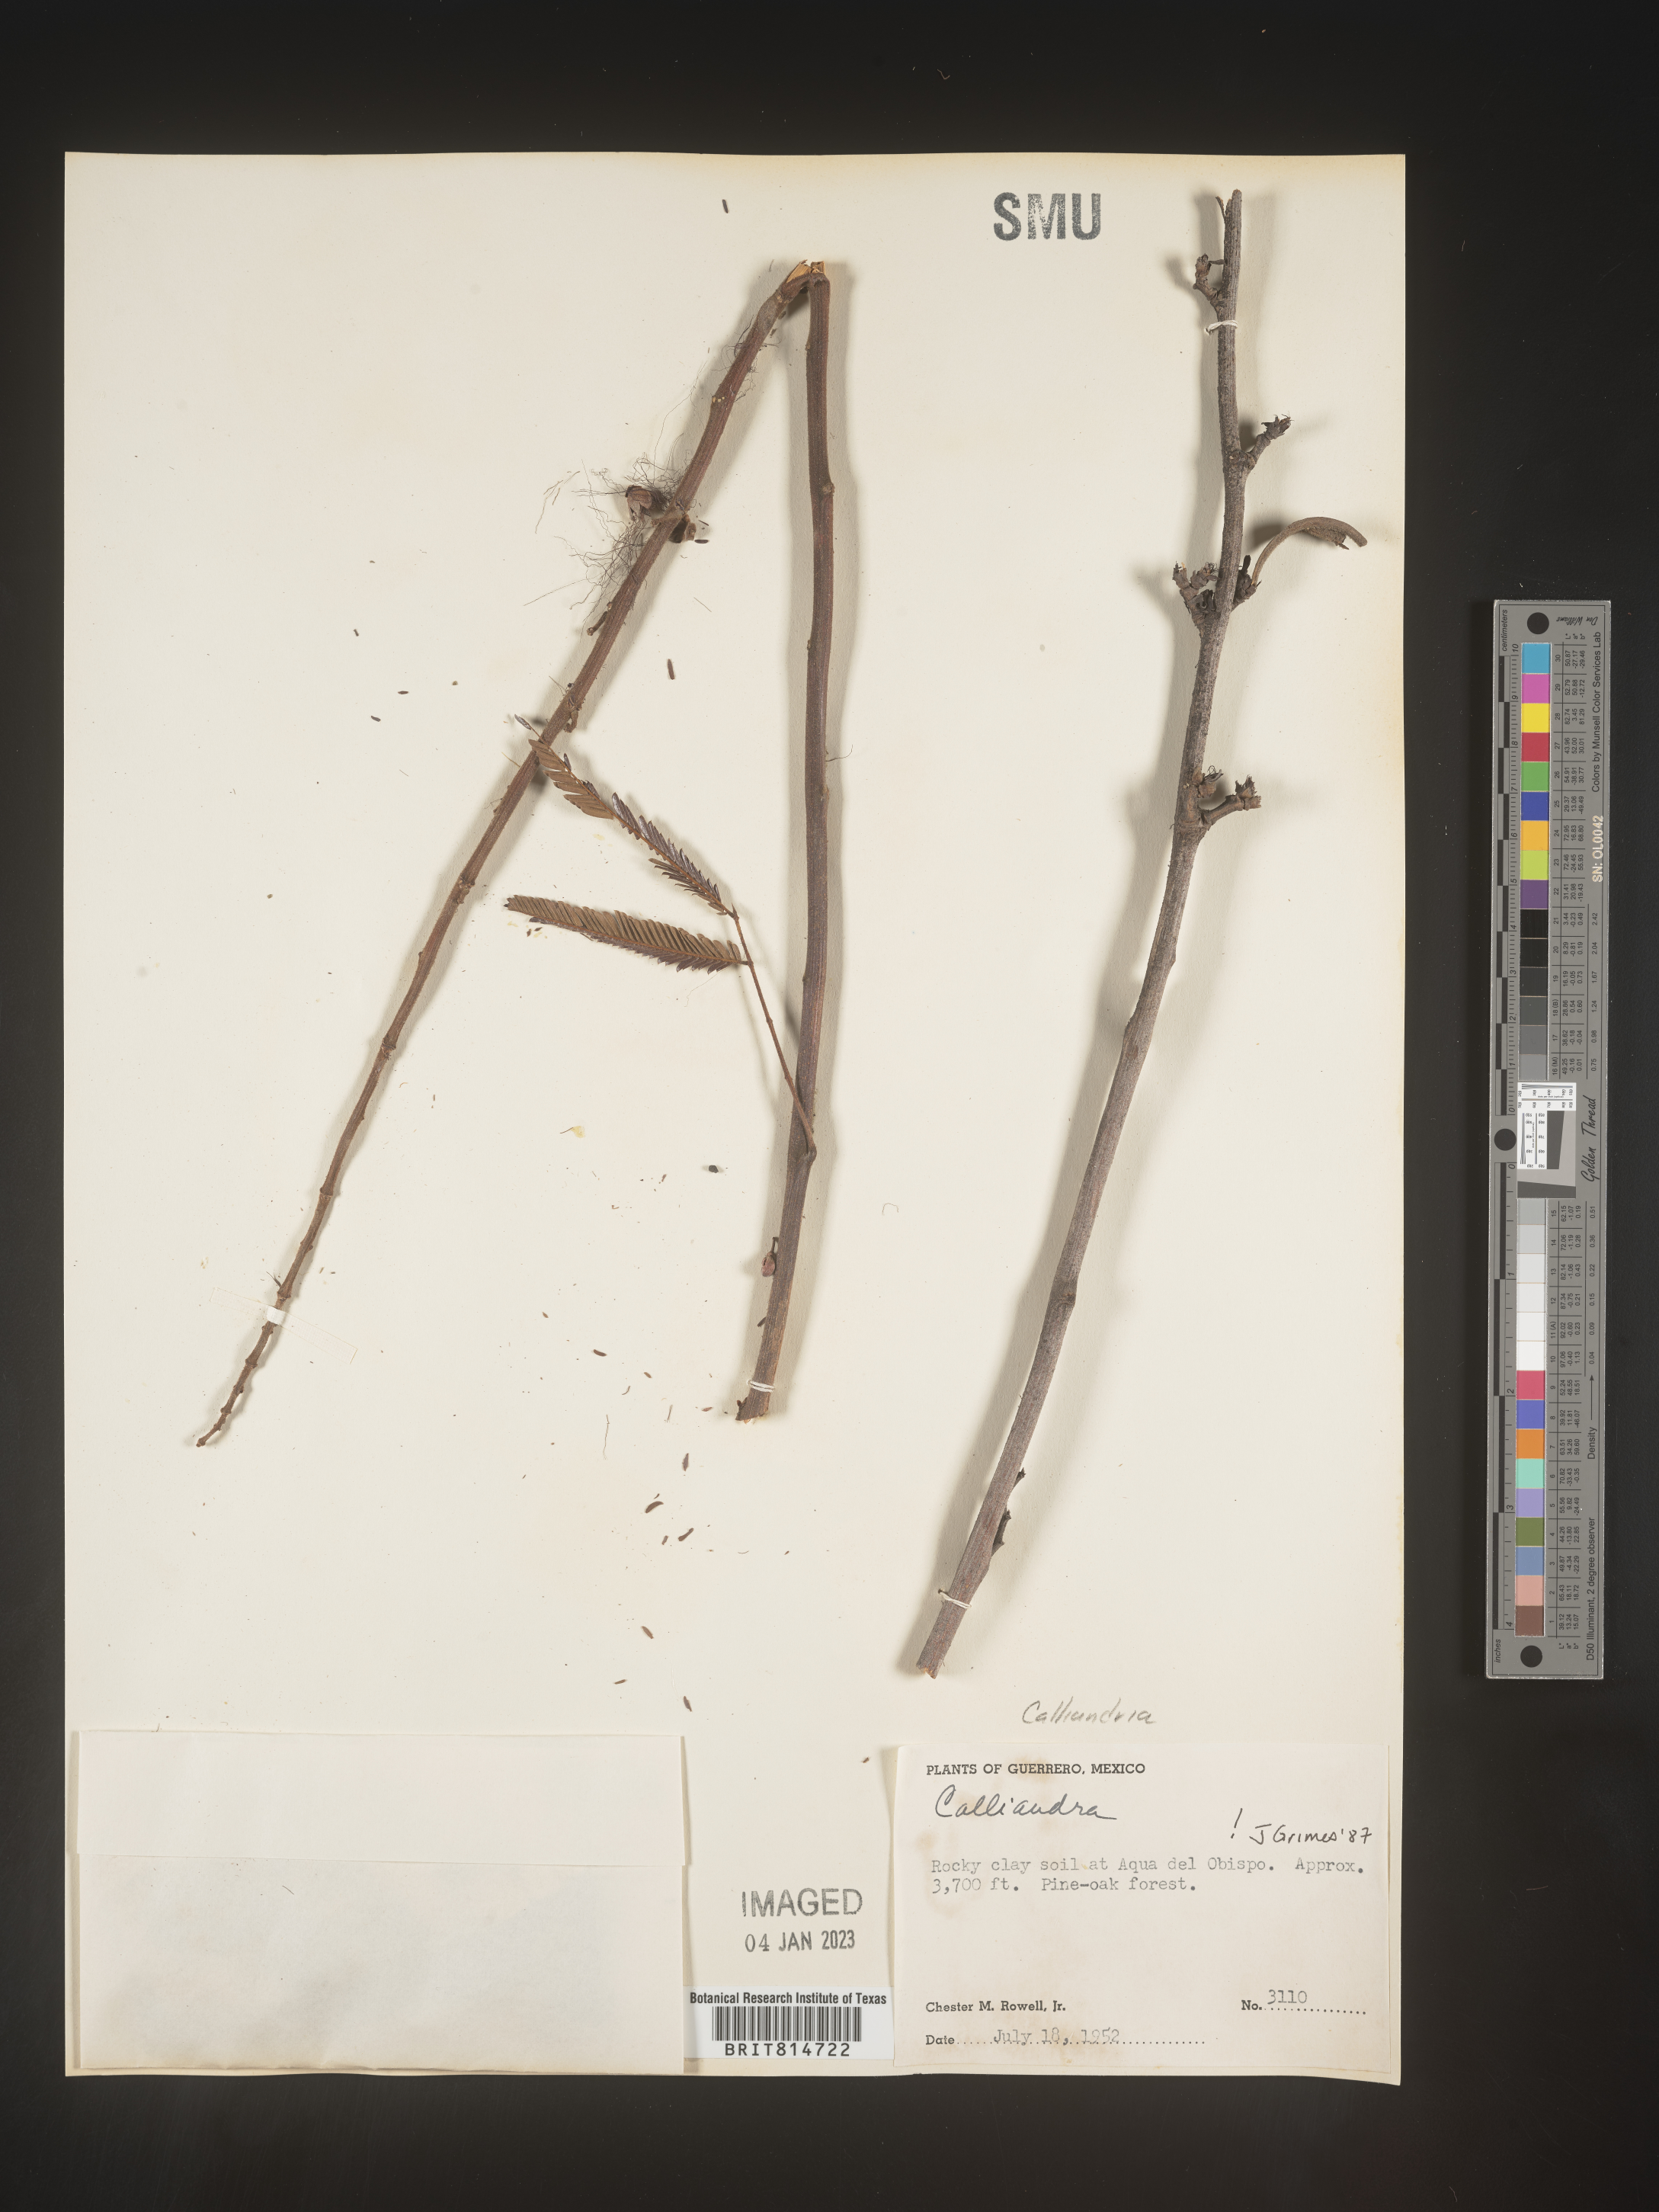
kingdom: Plantae
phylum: Tracheophyta
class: Magnoliopsida
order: Fabales
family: Fabaceae
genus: Calliandra
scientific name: Calliandra
